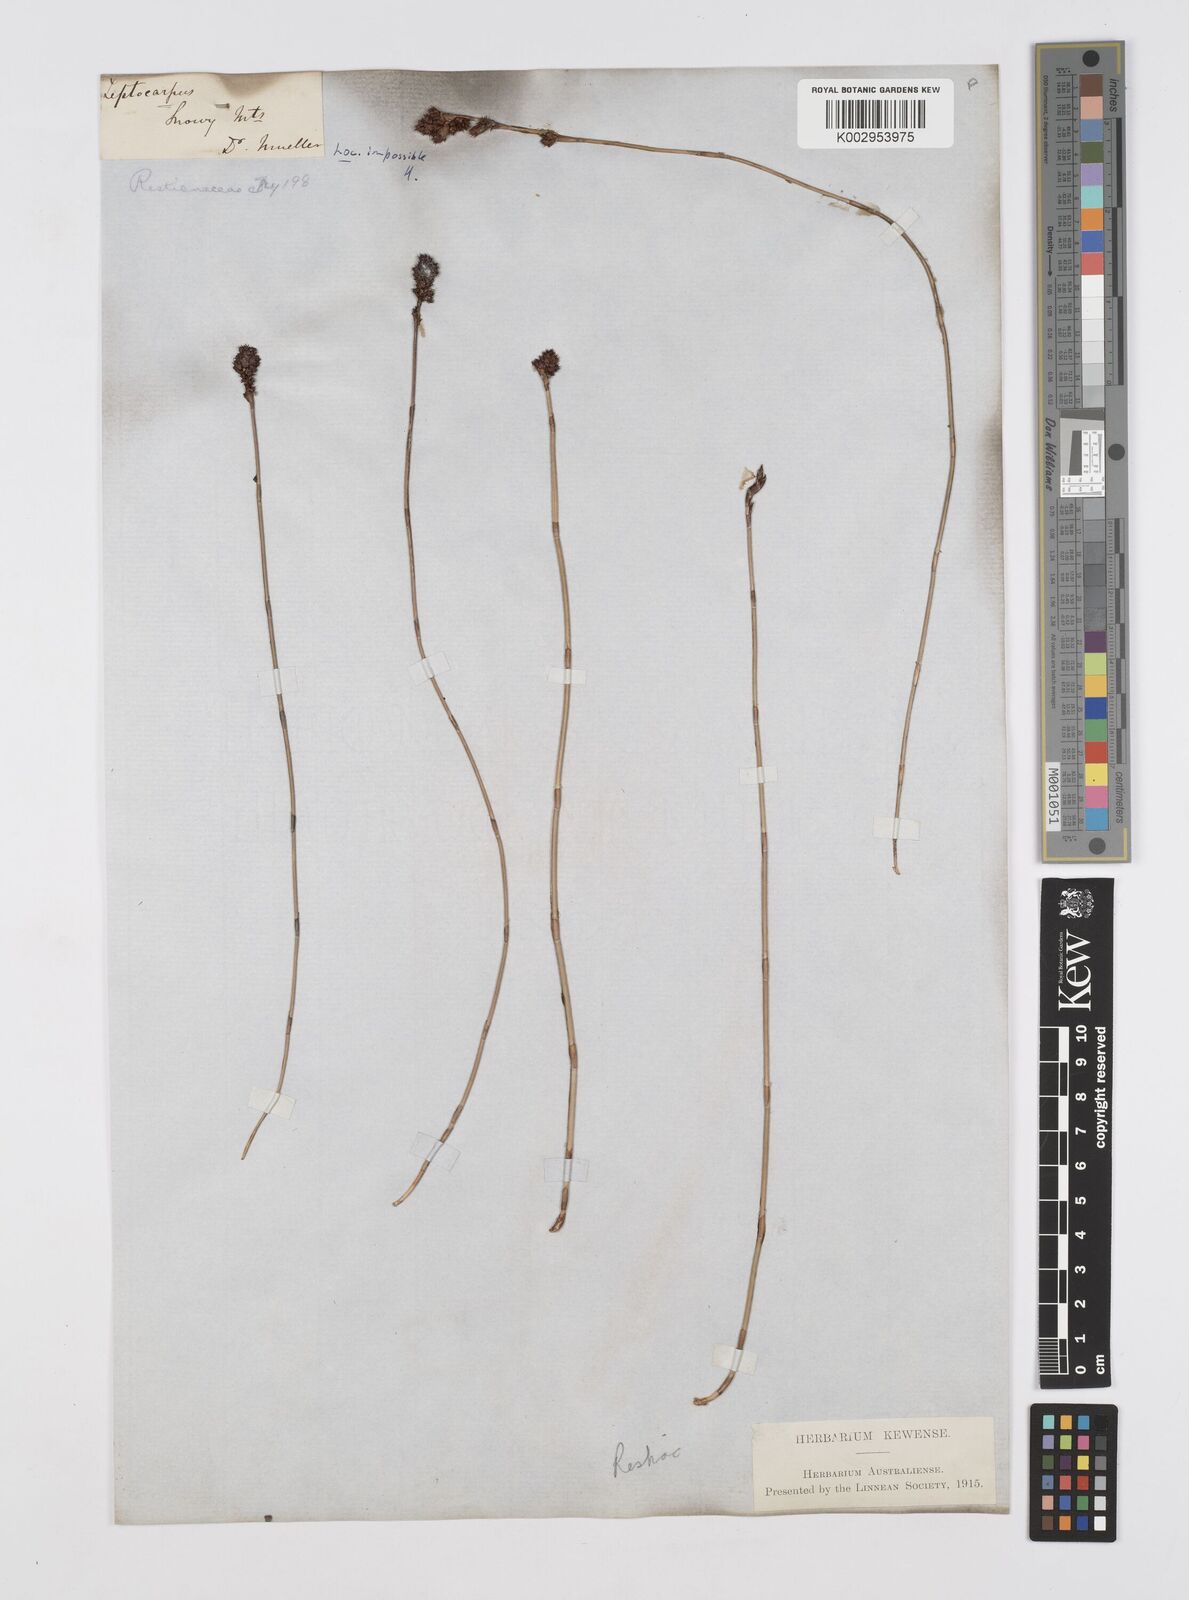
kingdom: Plantae
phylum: Tracheophyta
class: Liliopsida
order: Poales
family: Restionaceae
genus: Apodasmia
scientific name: Apodasmia brownii
